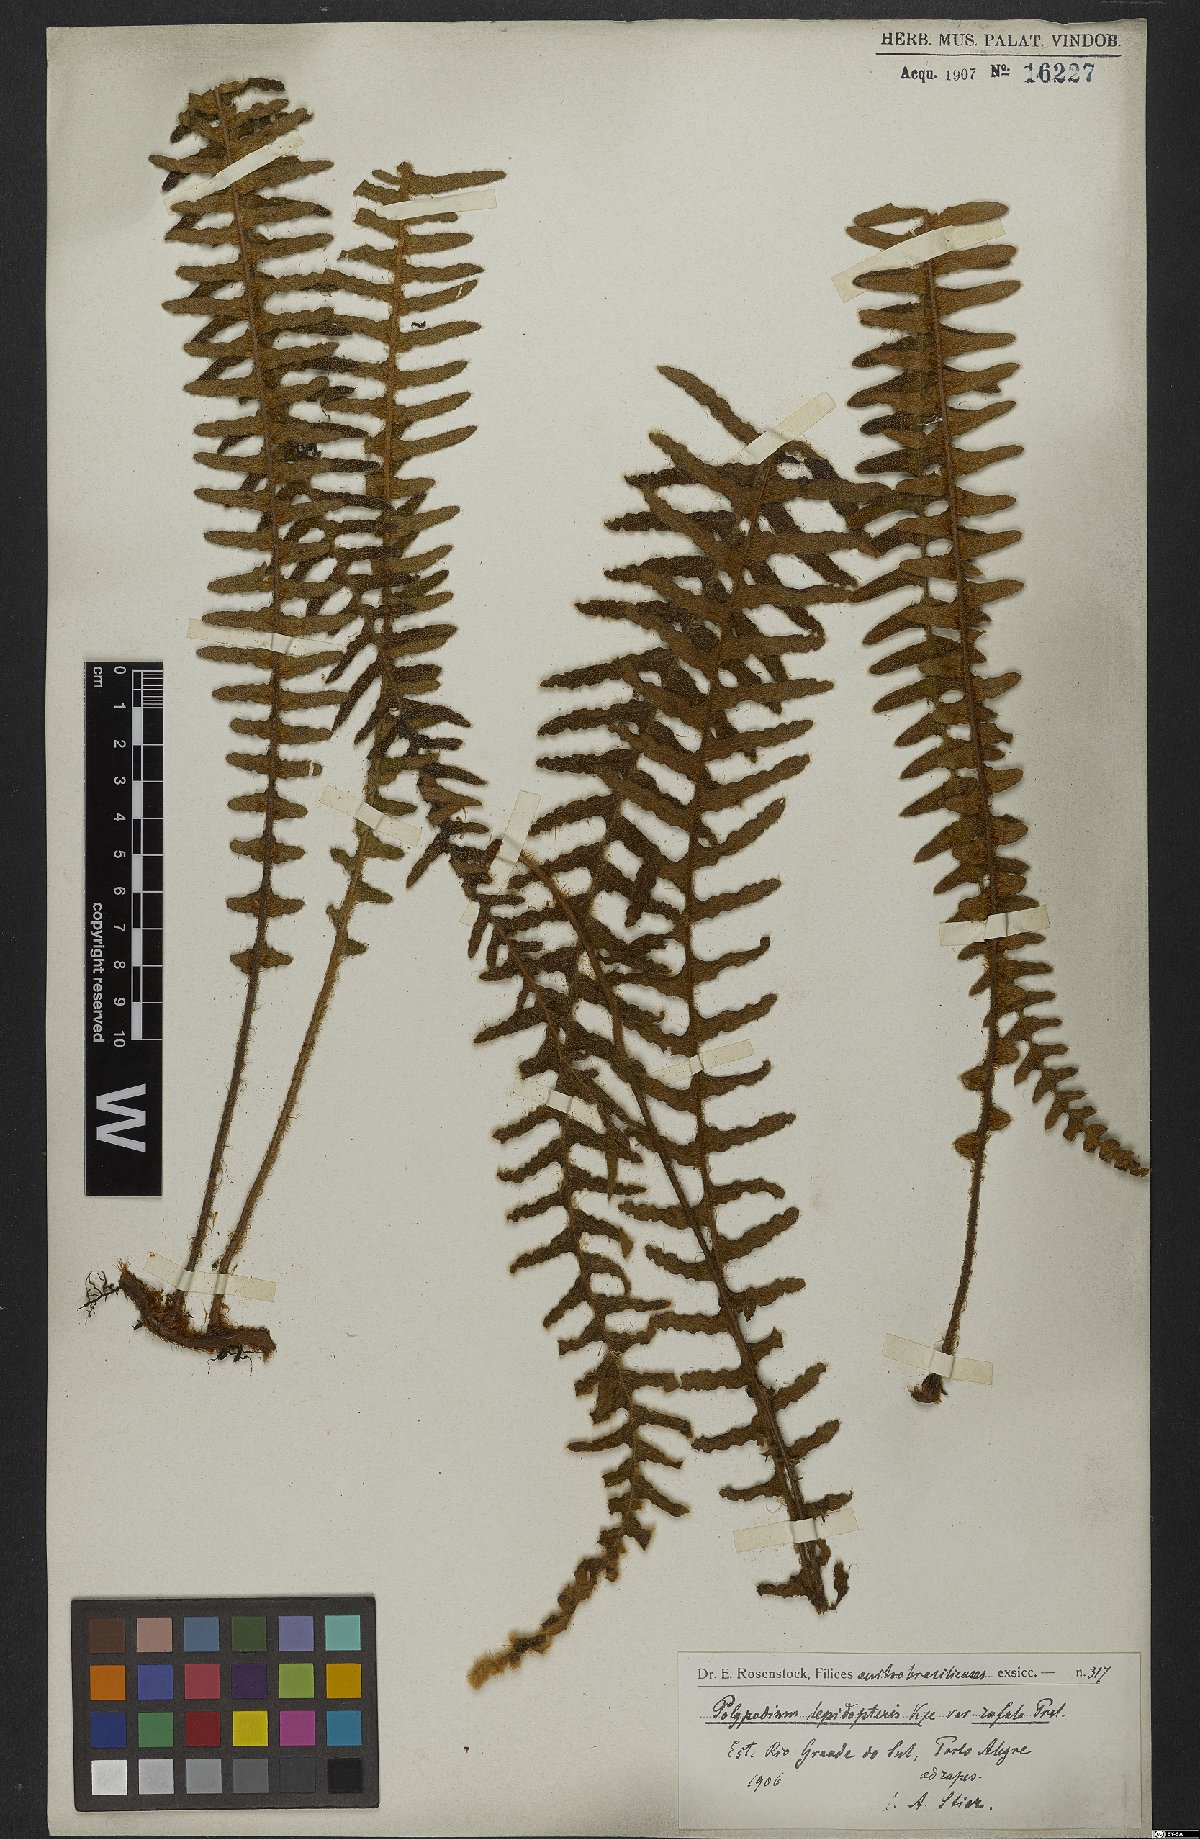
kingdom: Plantae
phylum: Tracheophyta
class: Polypodiopsida
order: Polypodiales
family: Polypodiaceae
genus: Pleopeltis
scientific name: Pleopeltis lepidopteris
